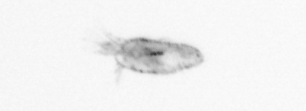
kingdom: Animalia
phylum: Annelida
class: Polychaeta
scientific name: Polychaeta
